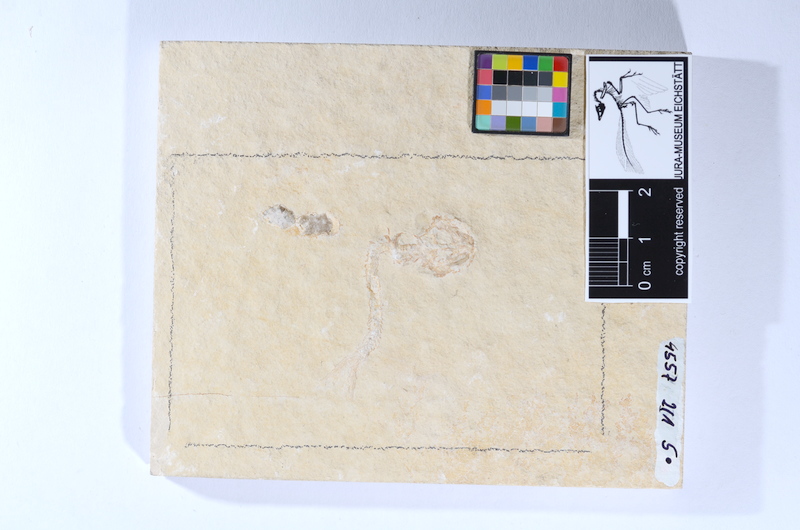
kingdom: Animalia
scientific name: Animalia
